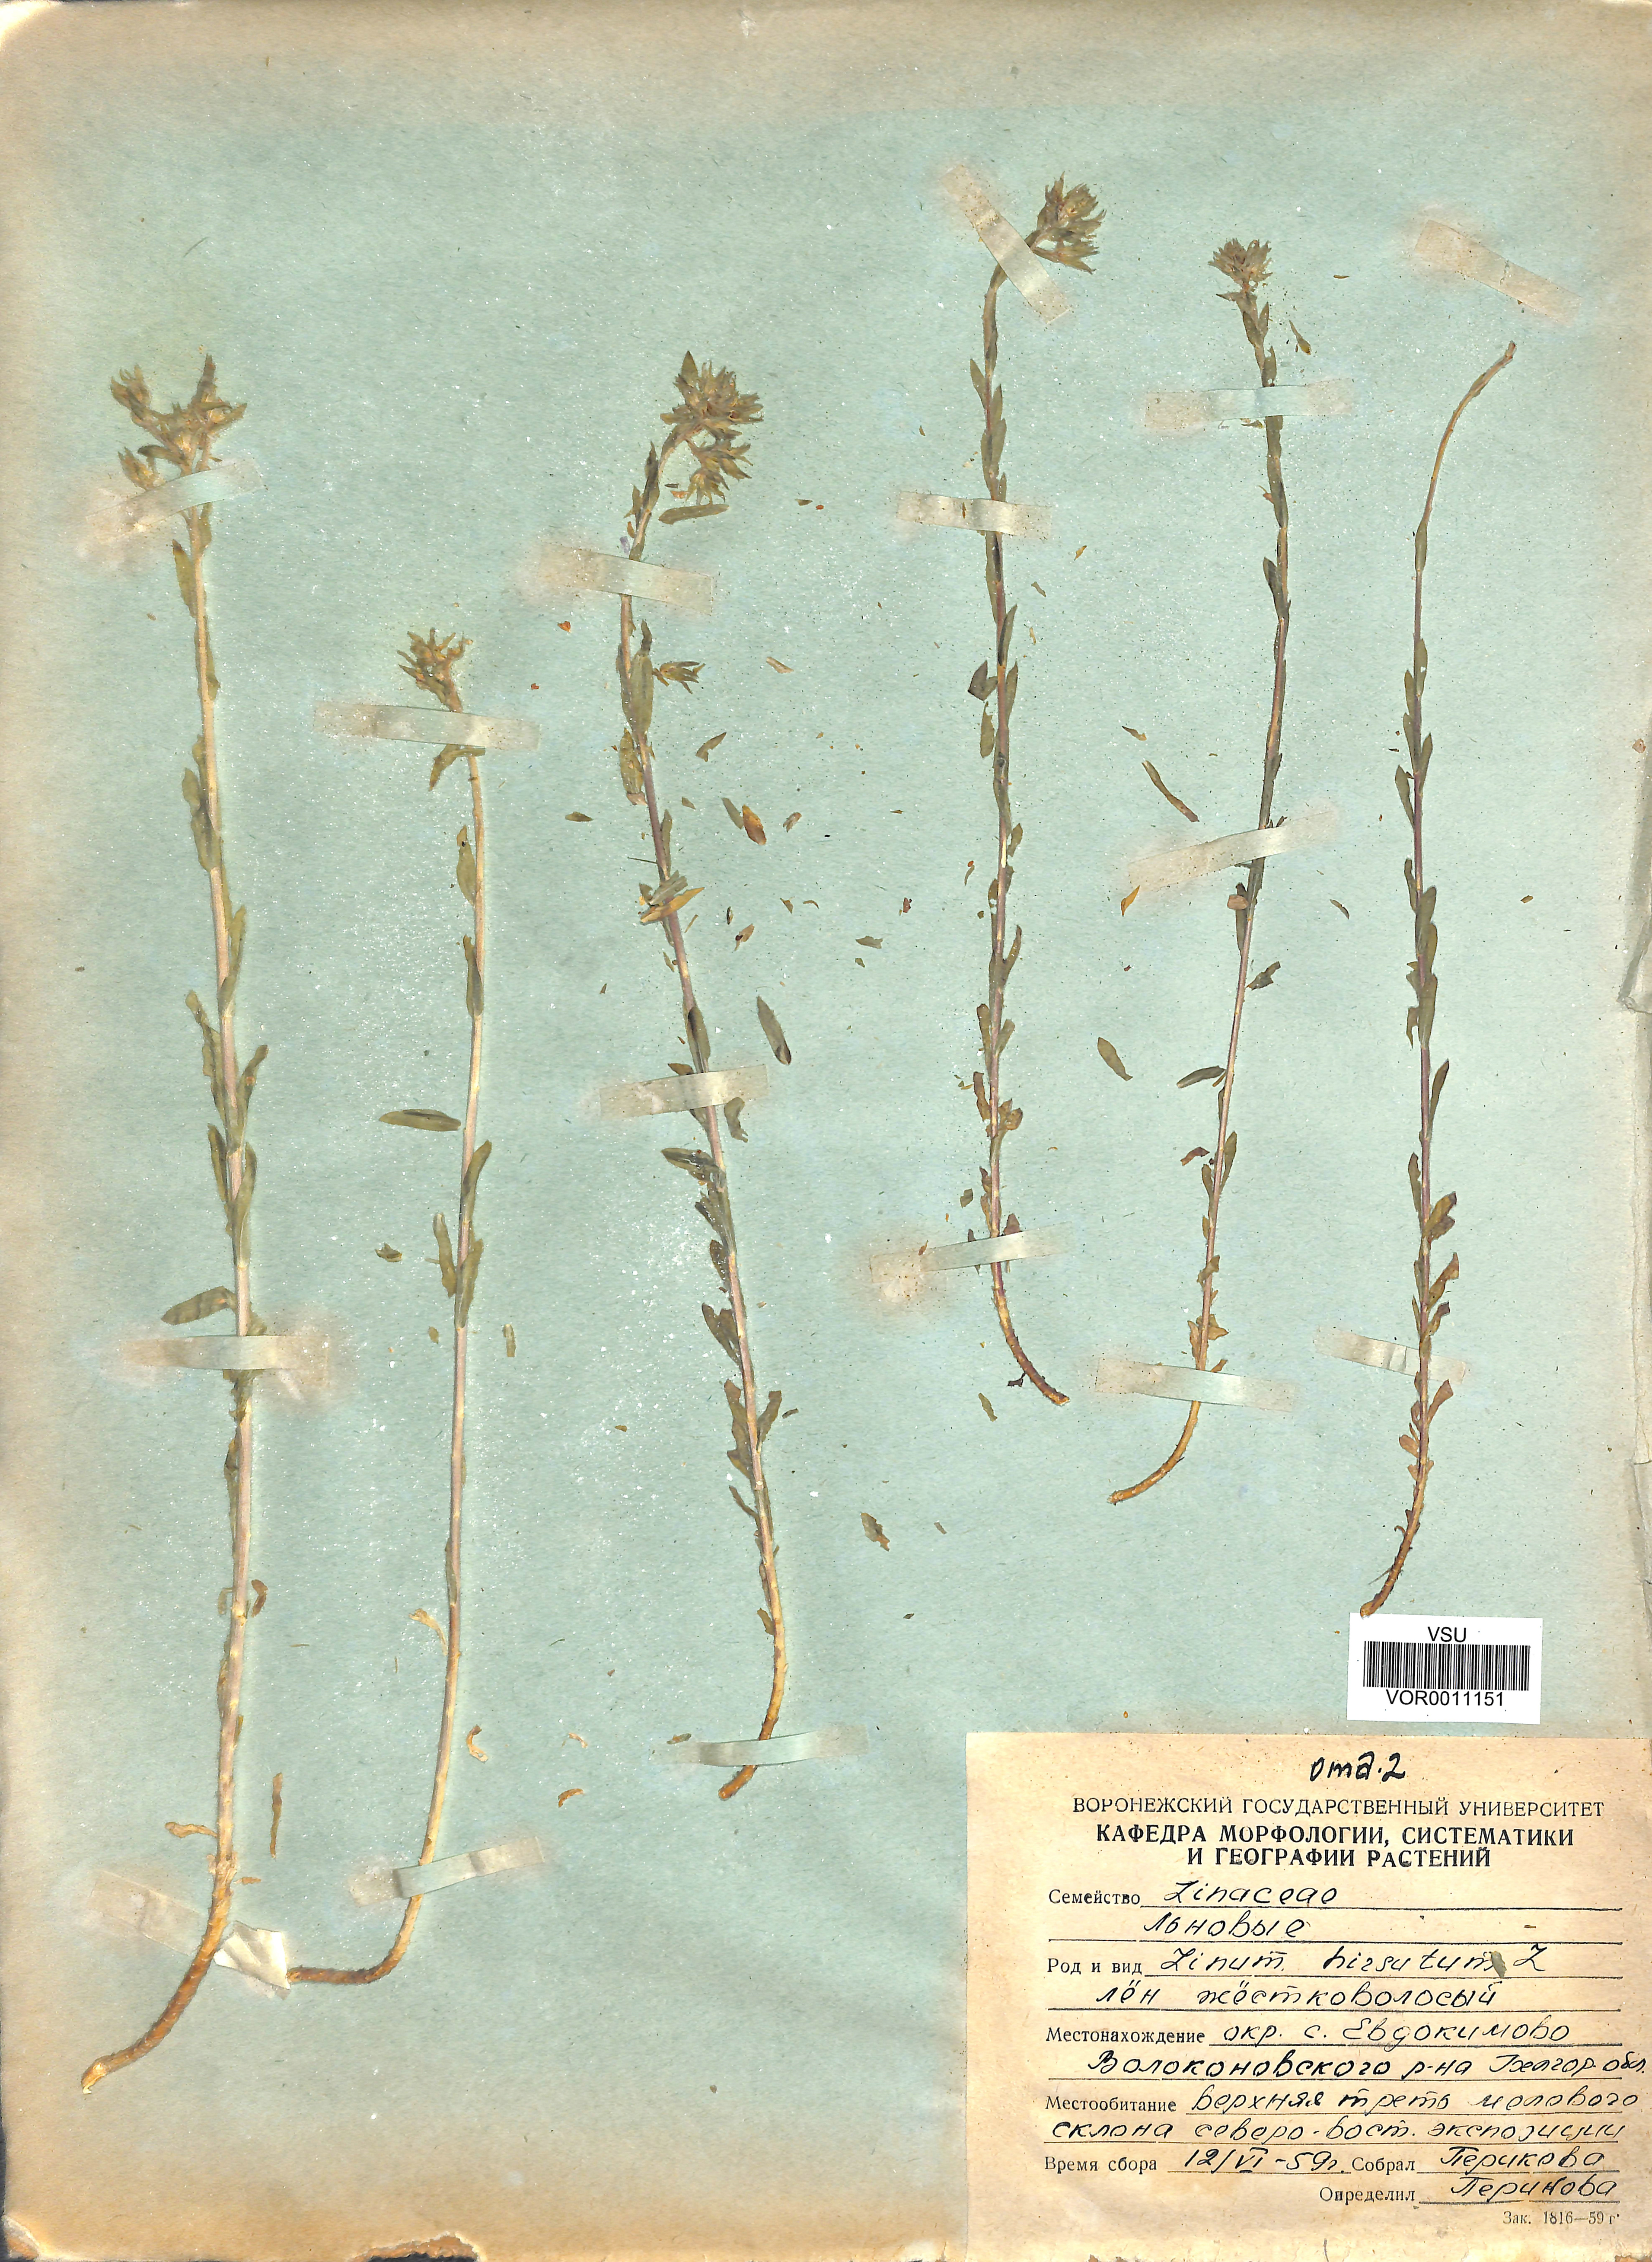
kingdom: Plantae
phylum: Tracheophyta
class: Magnoliopsida
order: Malpighiales
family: Linaceae
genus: Linum
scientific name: Linum hirsutum
